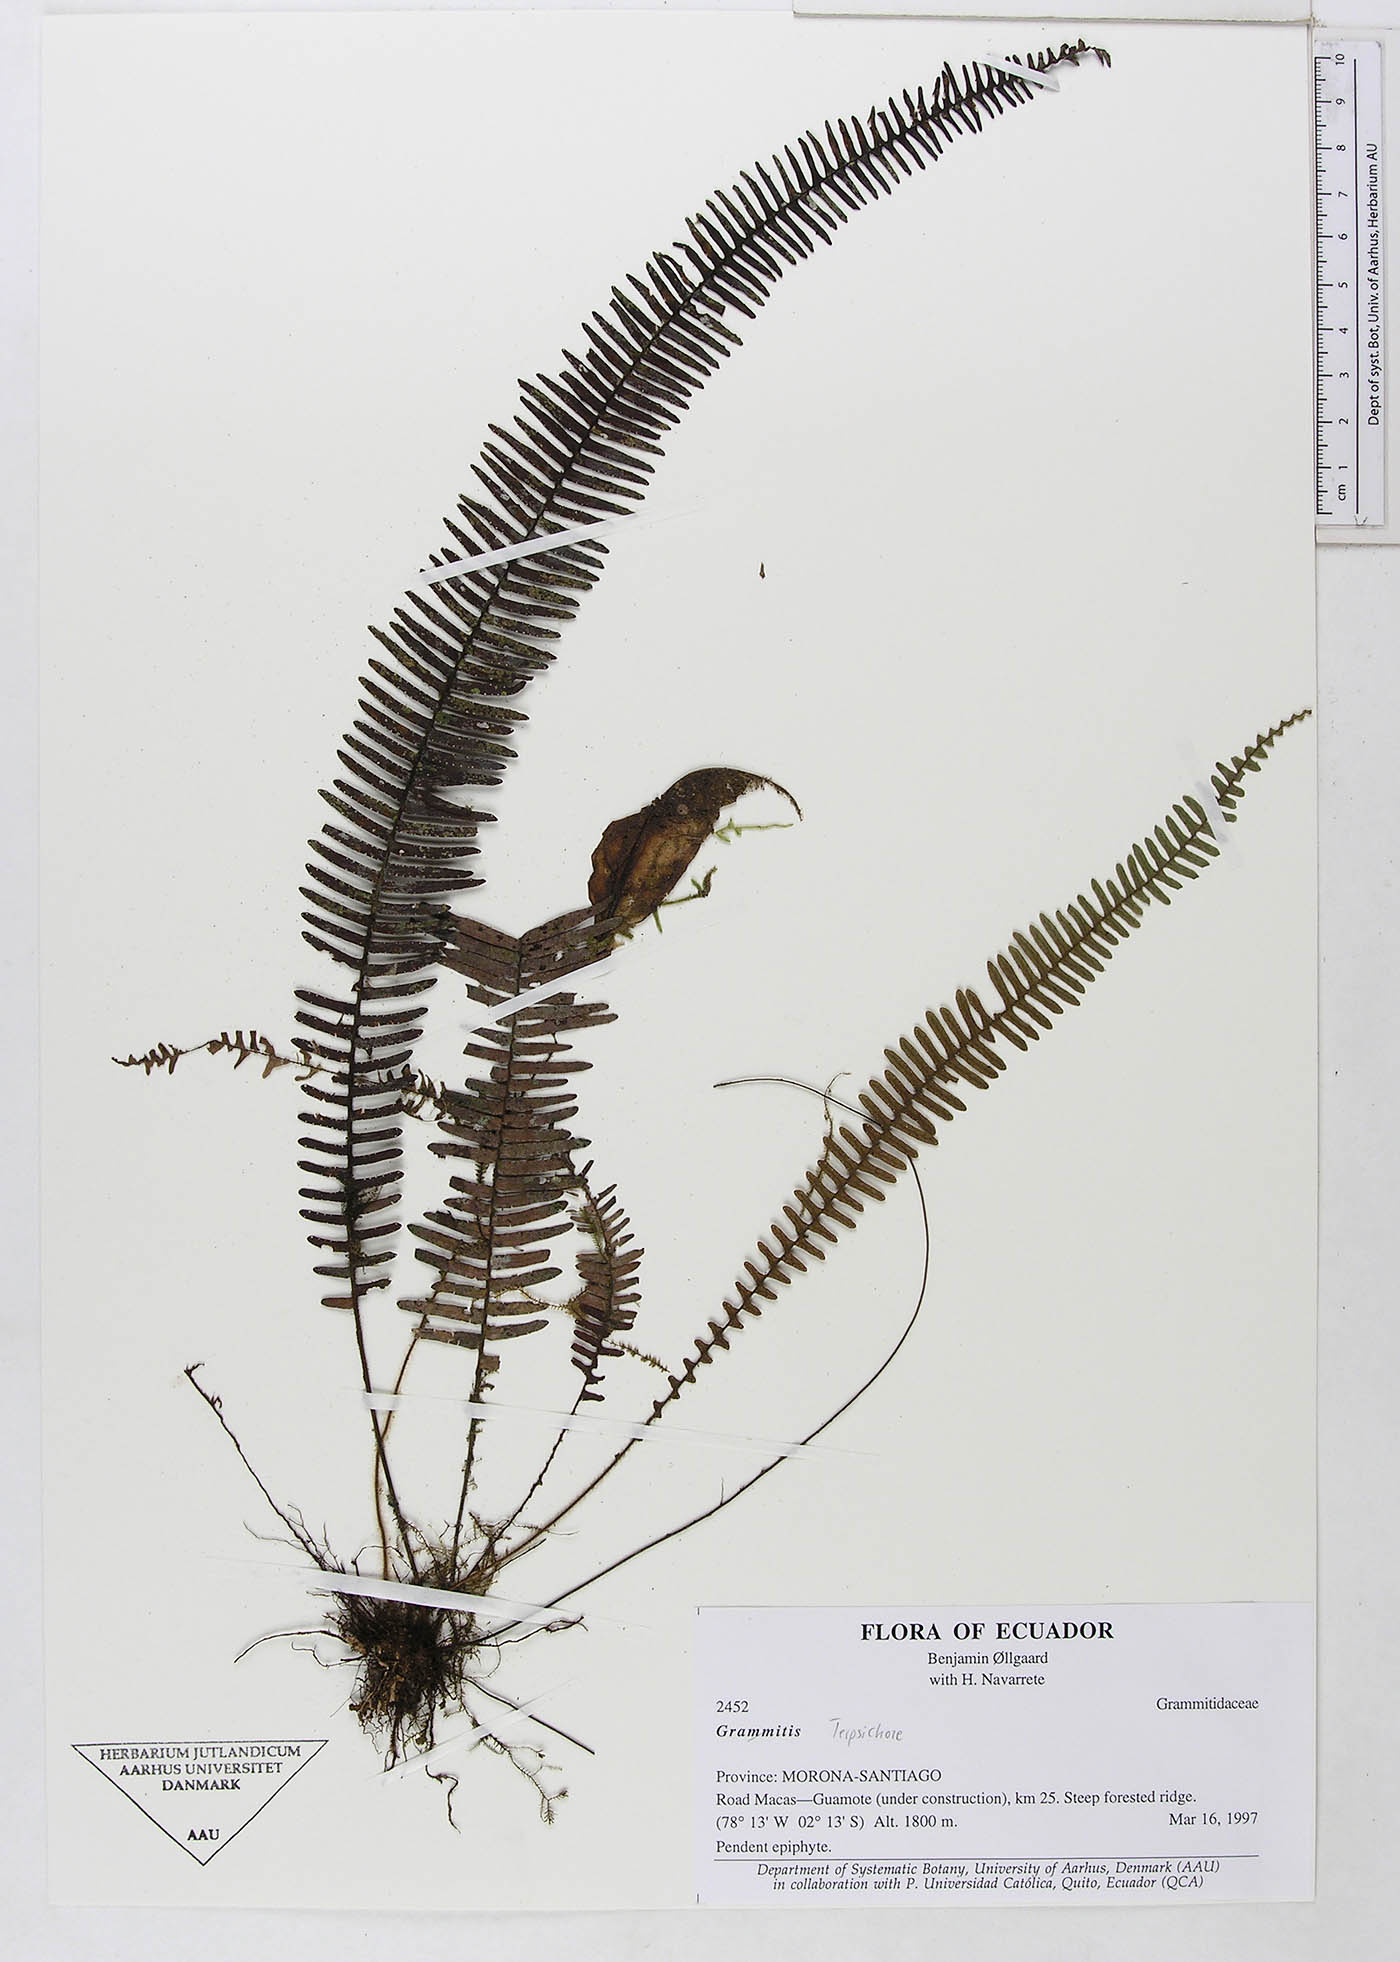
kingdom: Plantae
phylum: Tracheophyta
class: Polypodiopsida
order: Polypodiales
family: Polypodiaceae
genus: Grammitis
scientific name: Grammitis
